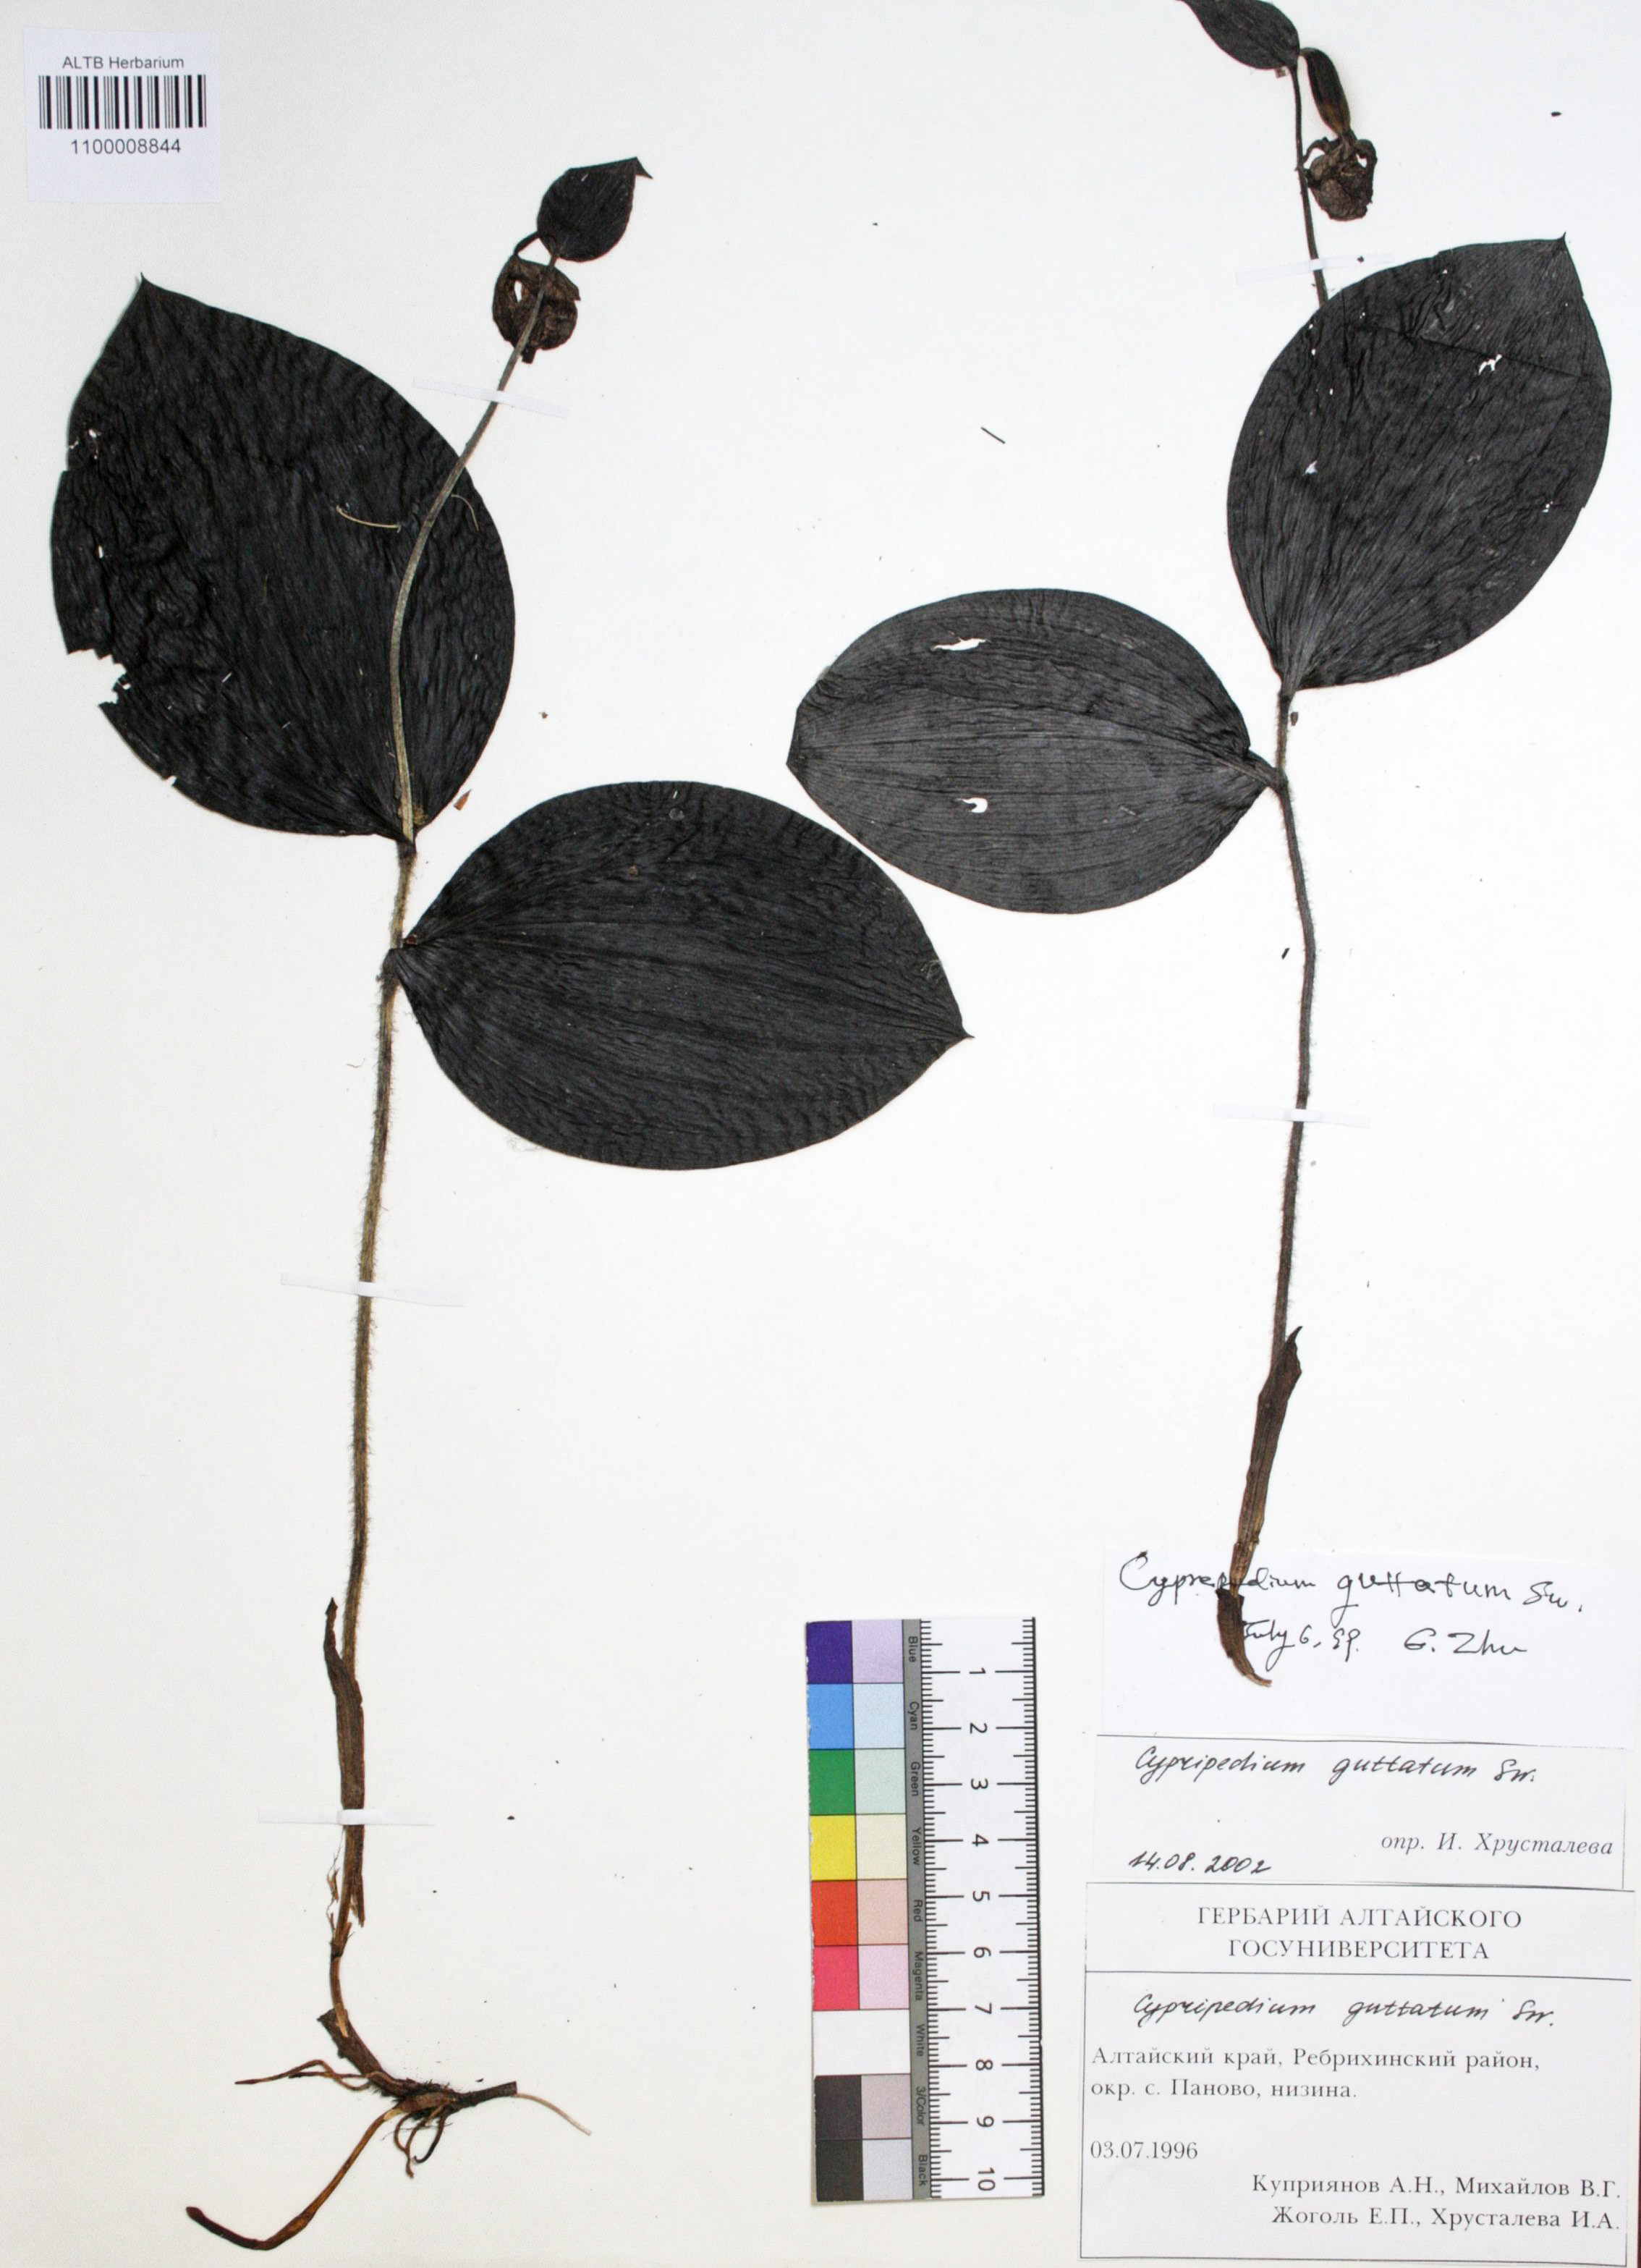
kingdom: Plantae
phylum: Tracheophyta
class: Liliopsida
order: Asparagales
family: Orchidaceae
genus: Cypripedium
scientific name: Cypripedium guttatum
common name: Pink lady slipper
